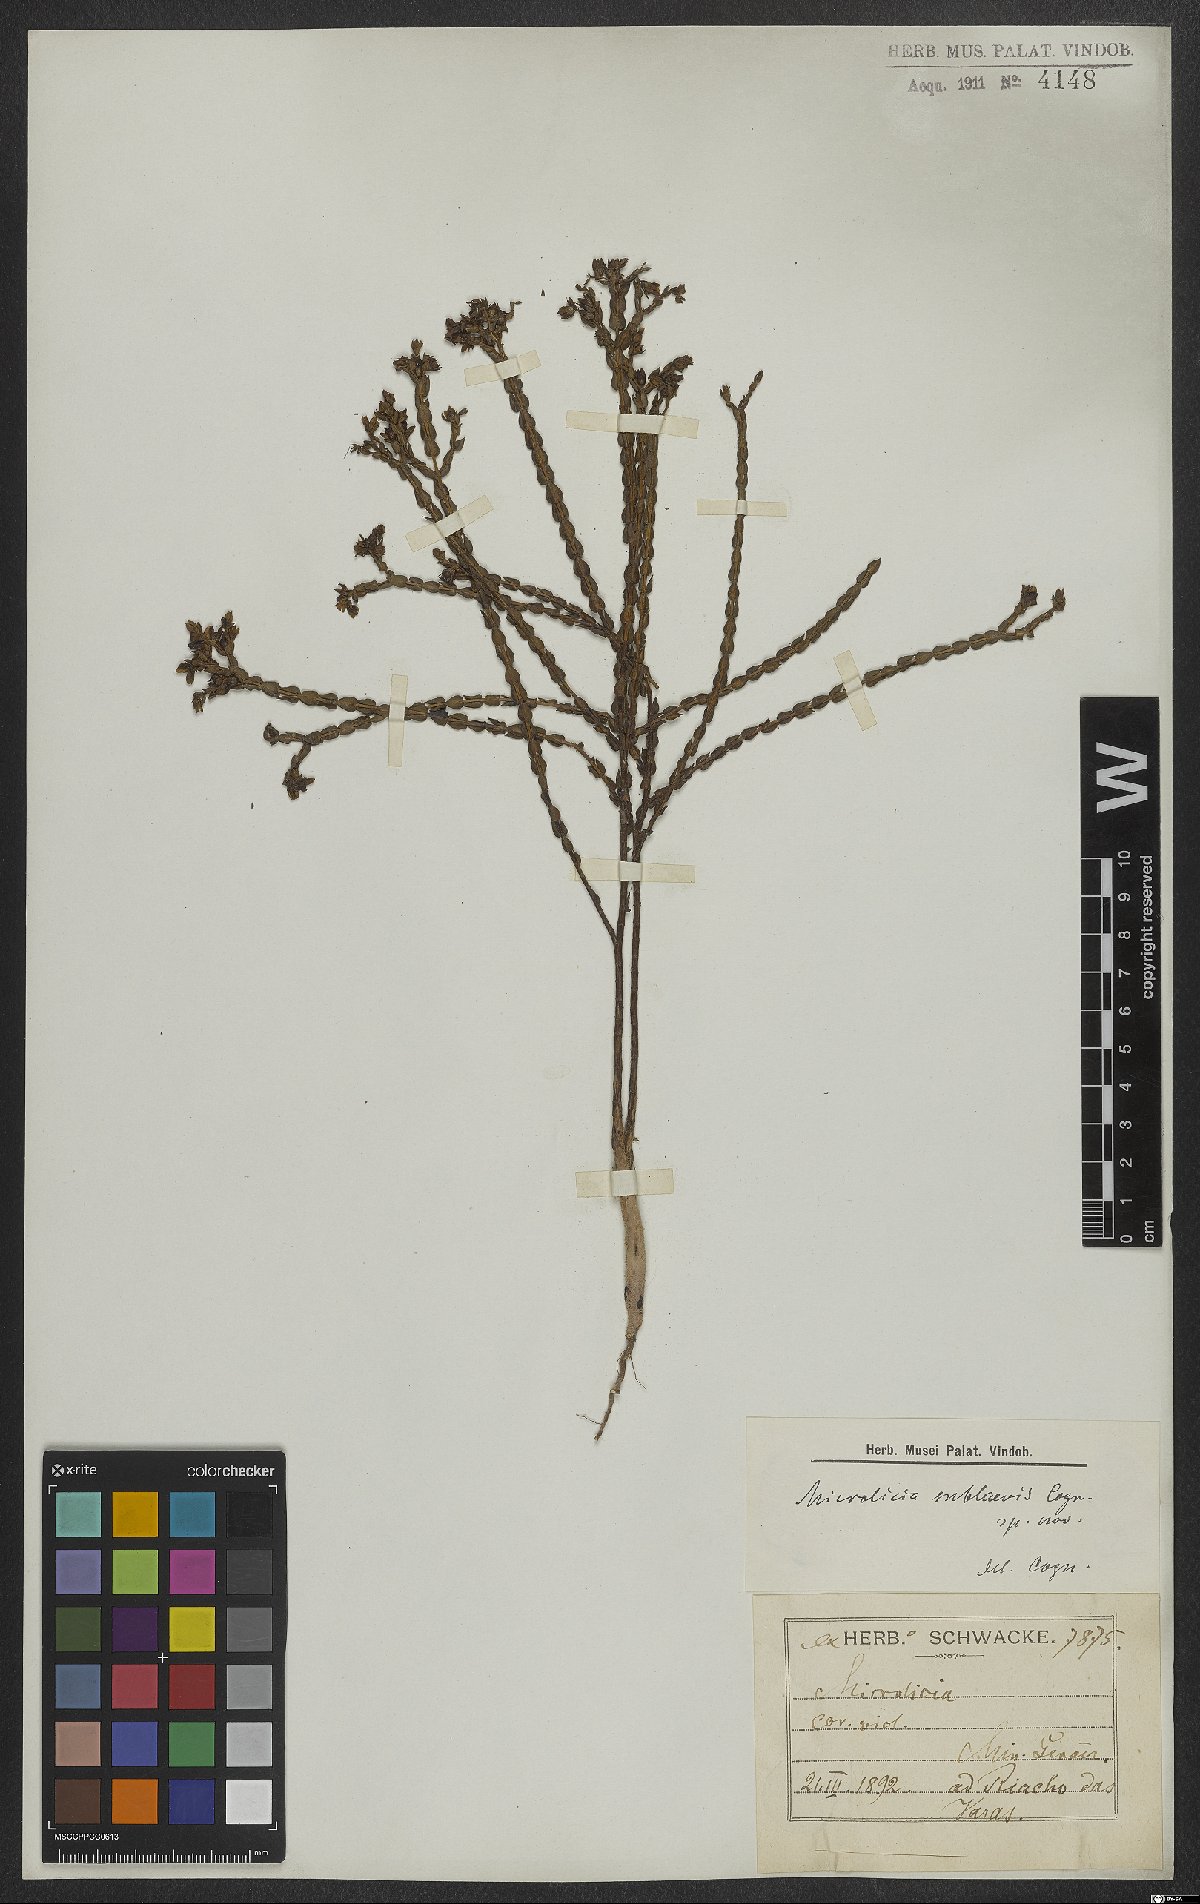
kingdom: Plantae
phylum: Tracheophyta
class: Magnoliopsida
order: Myrtales
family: Melastomataceae
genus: Microlicia
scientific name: Microlicia sublaevis
